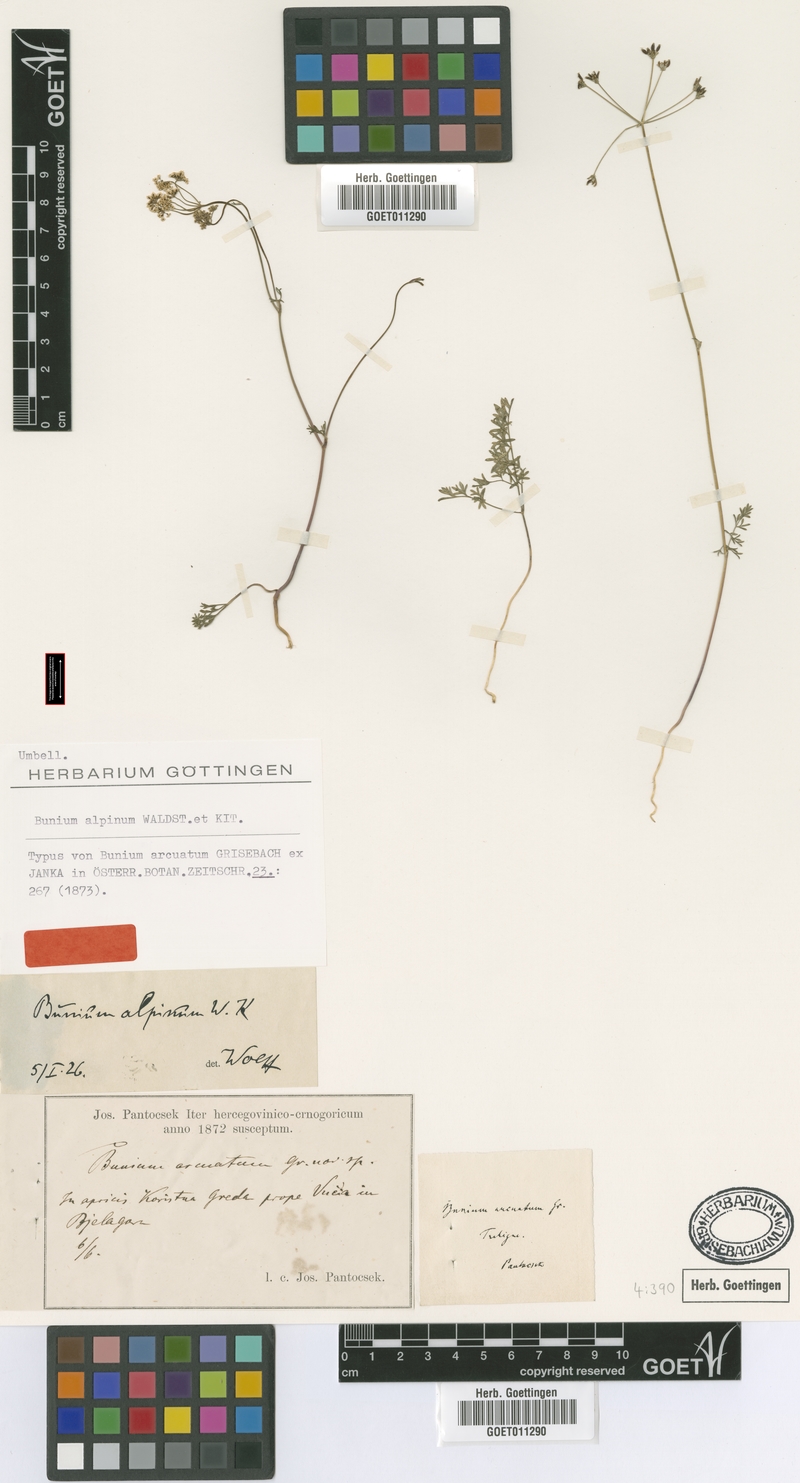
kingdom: Plantae
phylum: Tracheophyta
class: Magnoliopsida
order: Apiales
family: Apiaceae
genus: Bunium
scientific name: Bunium alpinum
